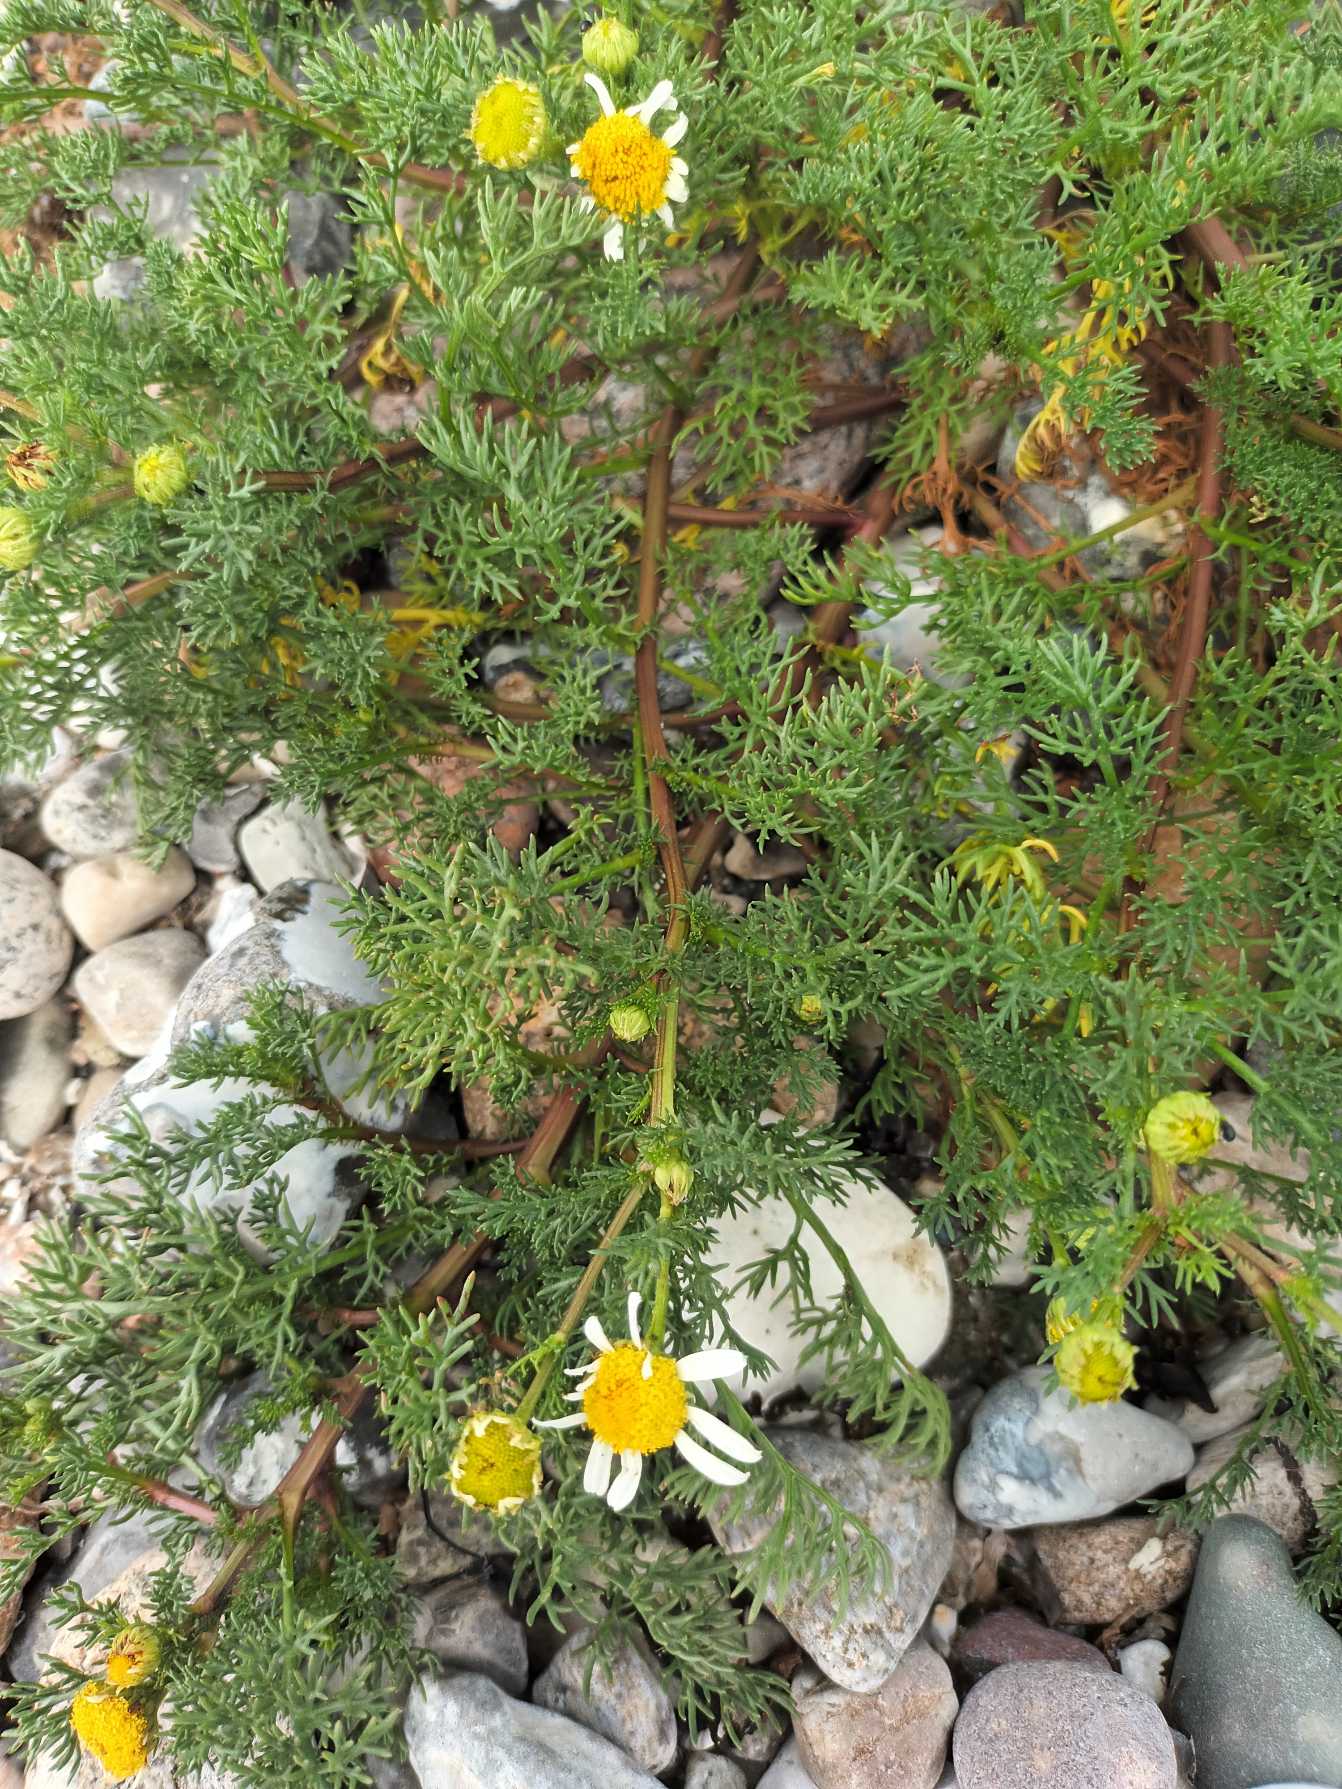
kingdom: Plantae
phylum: Tracheophyta
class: Magnoliopsida
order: Asterales
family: Asteraceae
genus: Tripleurospermum
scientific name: Tripleurospermum maritimum
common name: Strand-kamille
